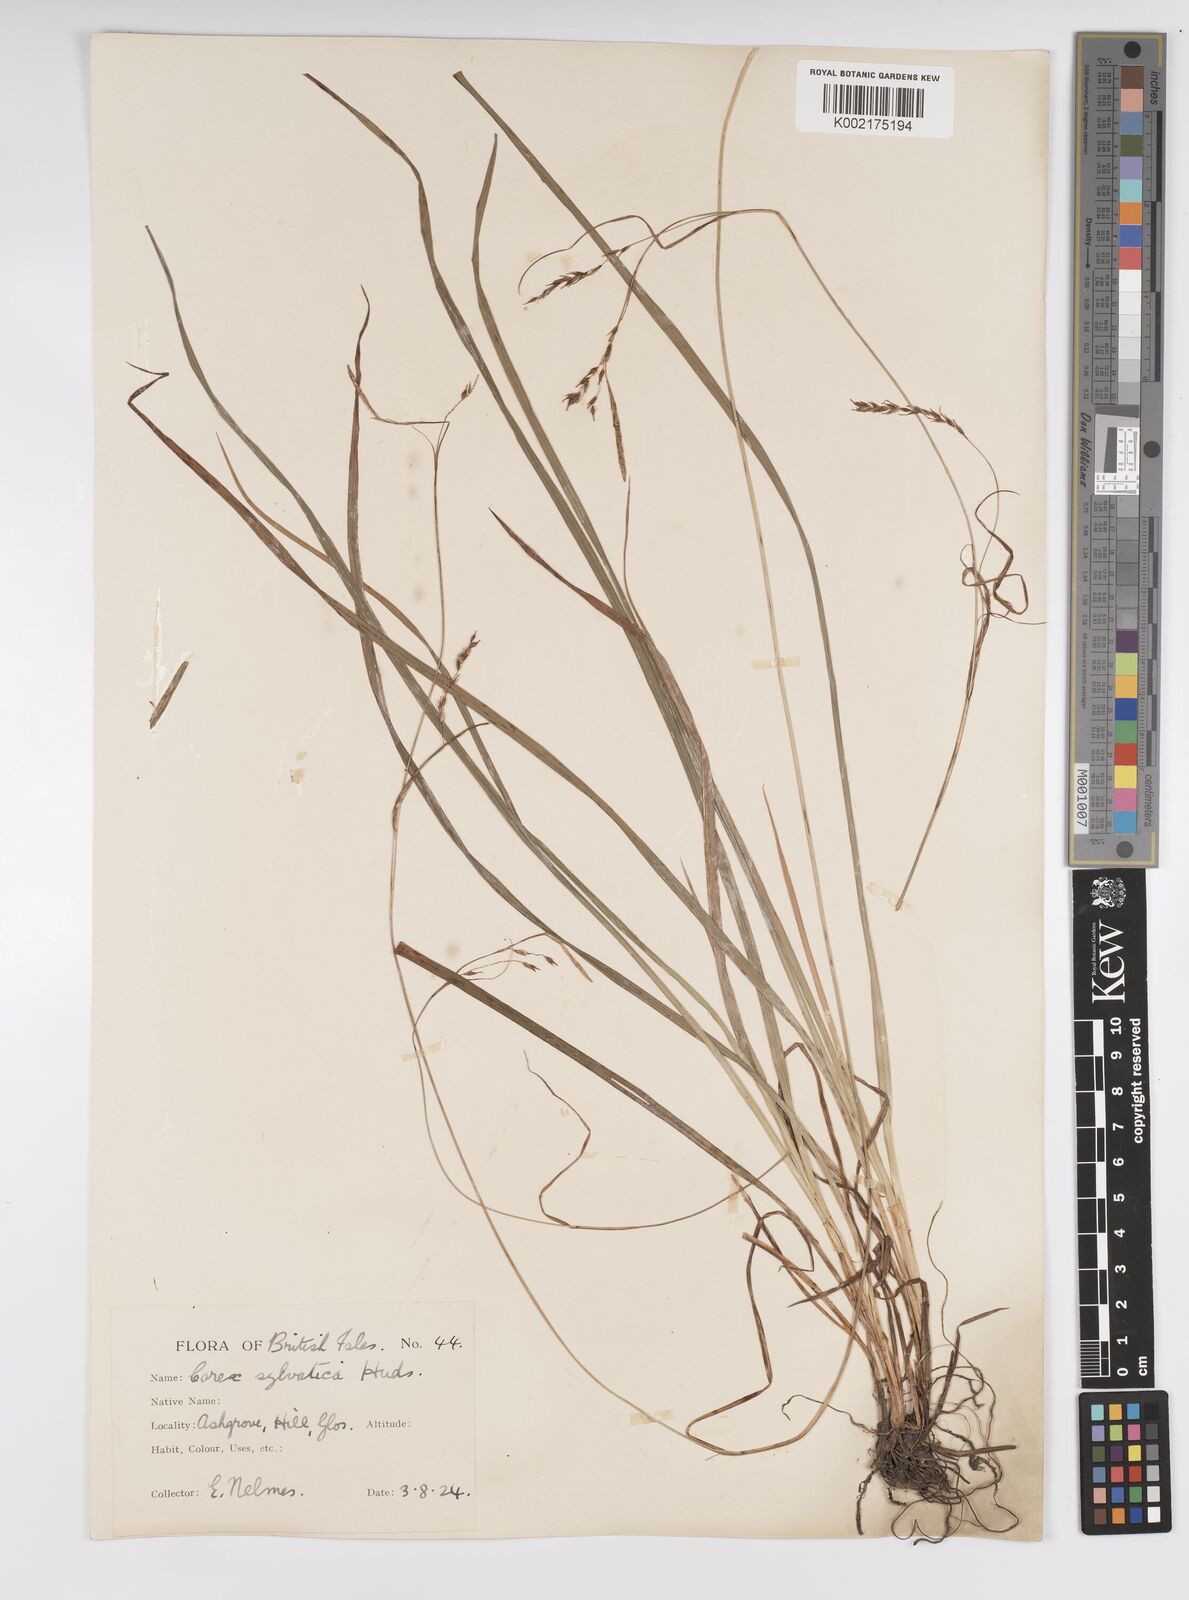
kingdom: Plantae
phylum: Tracheophyta
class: Liliopsida
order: Poales
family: Cyperaceae
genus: Carex
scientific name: Carex sylvatica
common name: Wood-sedge
